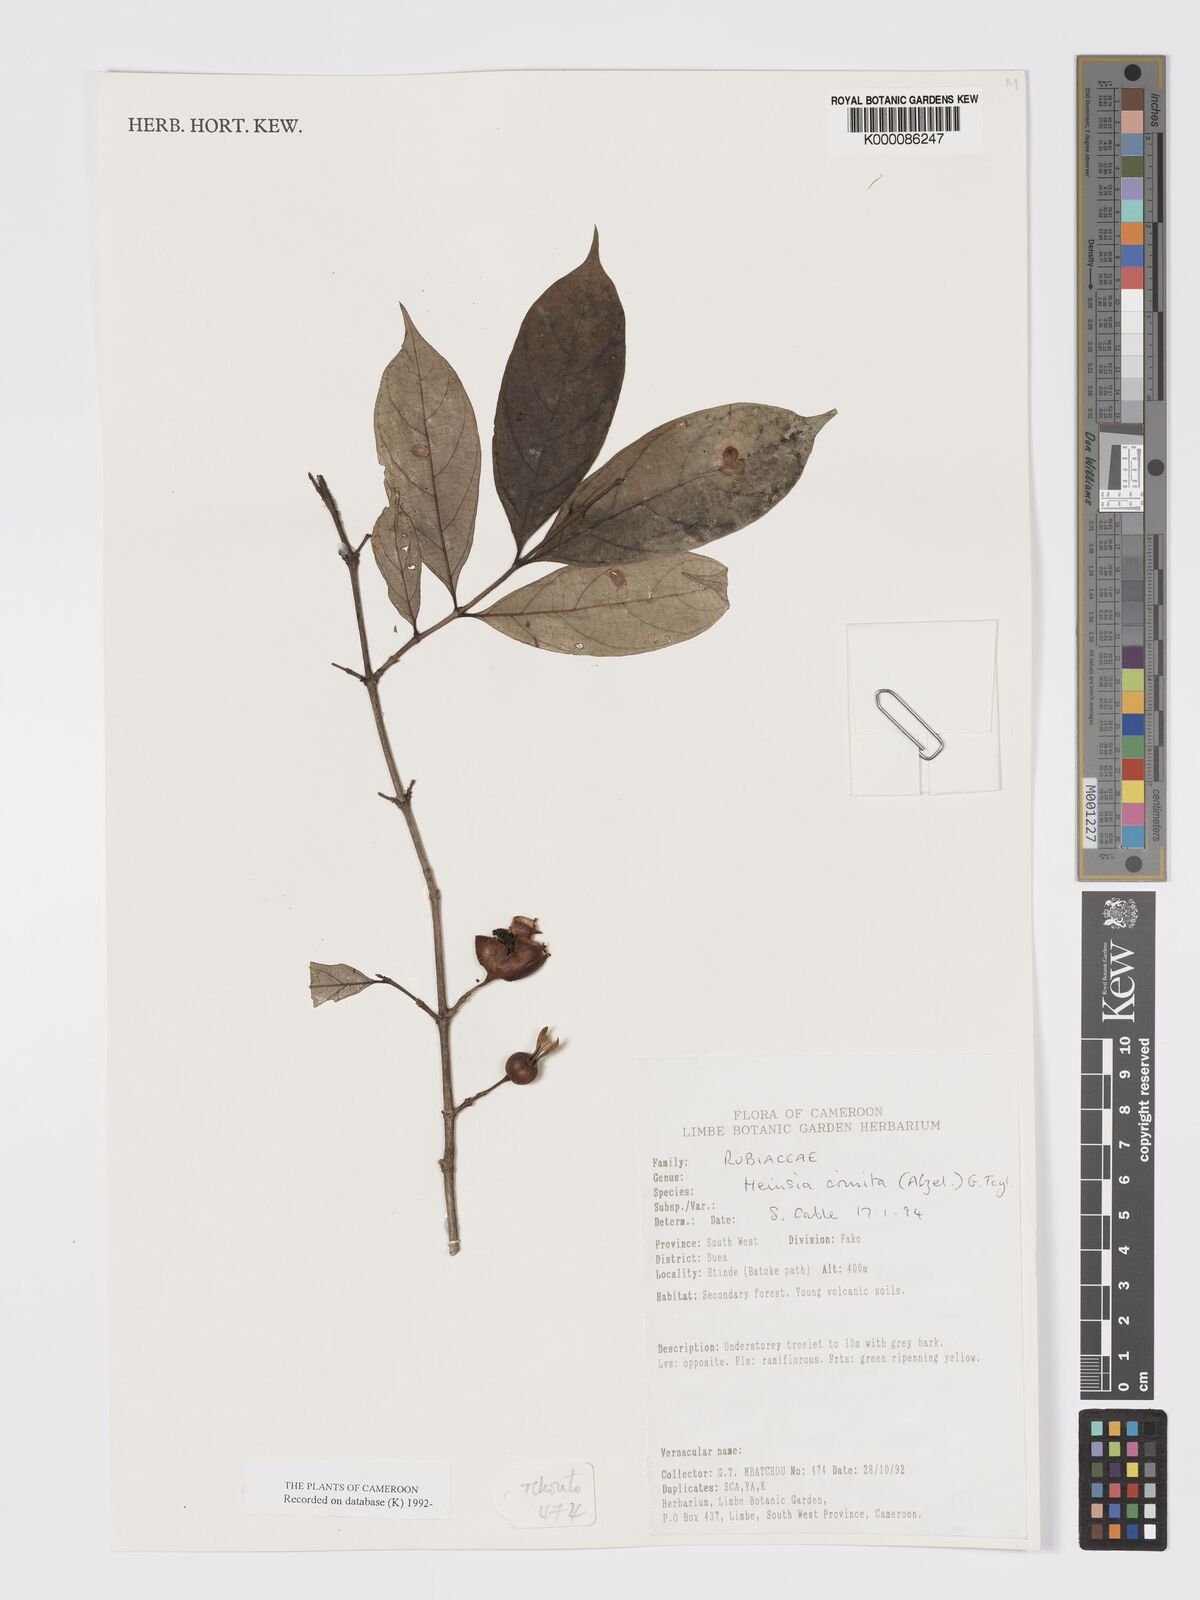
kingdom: Plantae
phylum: Tracheophyta
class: Magnoliopsida
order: Gentianales
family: Rubiaceae
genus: Heinsia
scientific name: Heinsia crinita
